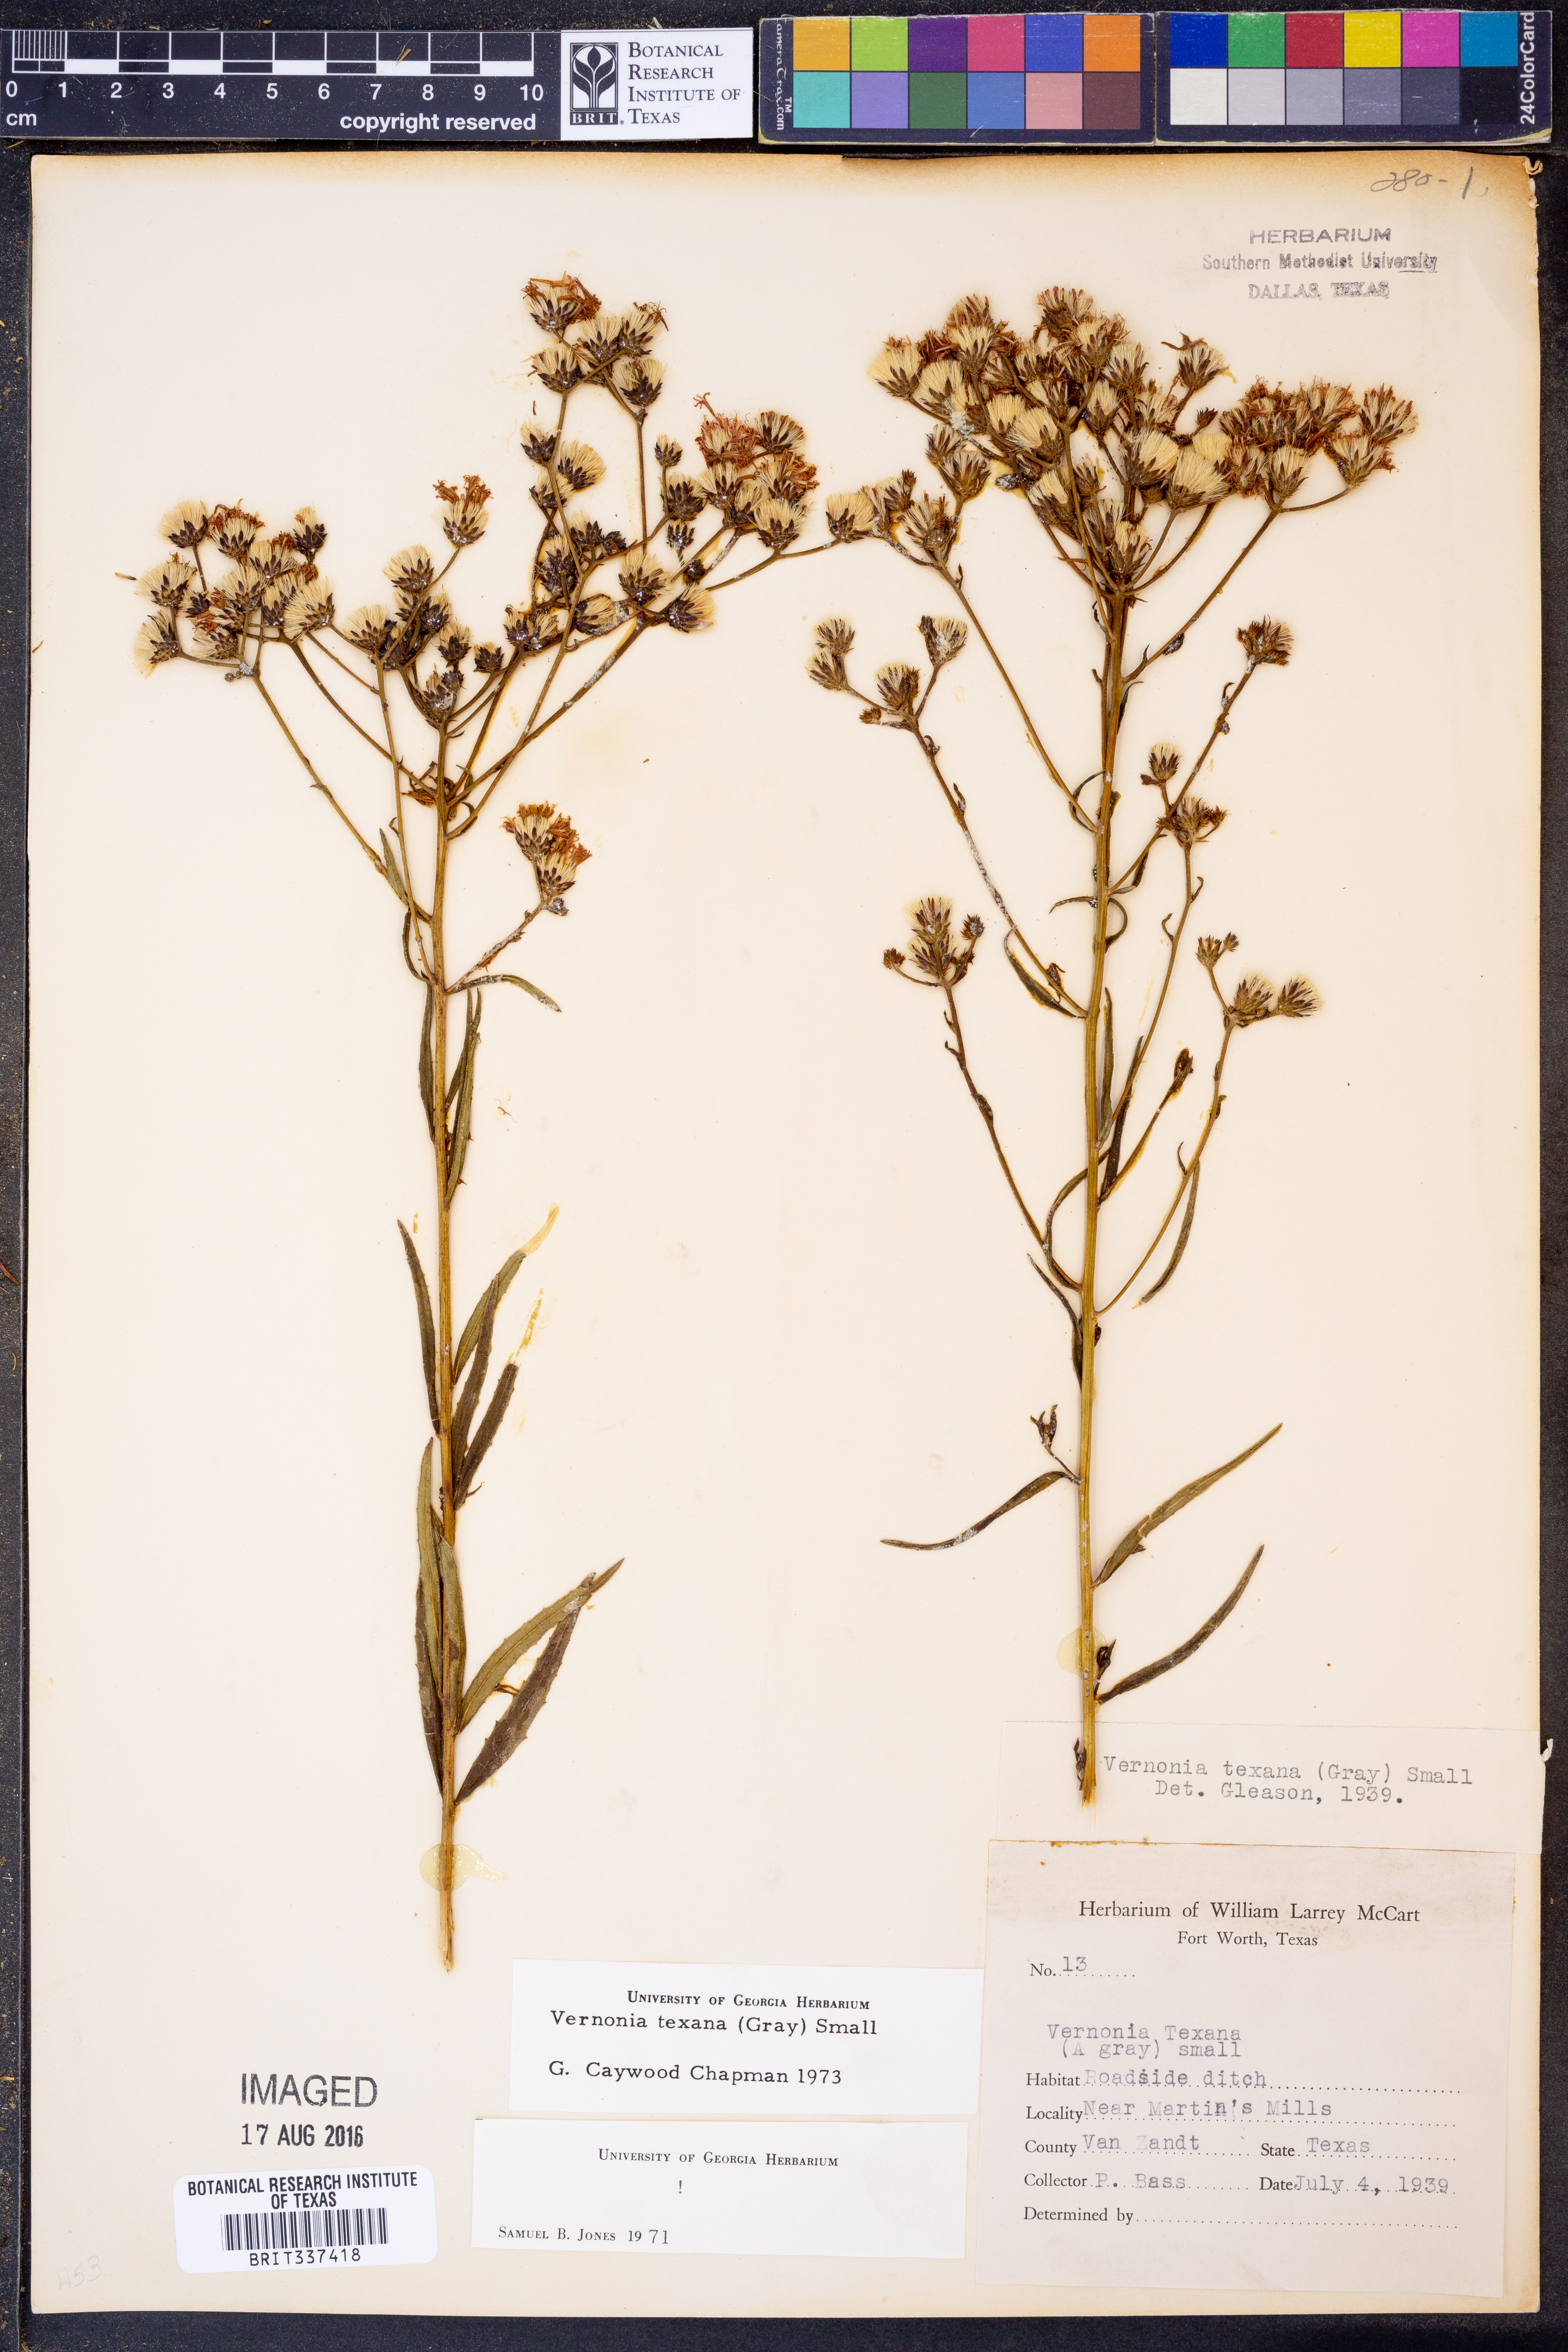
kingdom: Plantae
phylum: Tracheophyta
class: Magnoliopsida
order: Asterales
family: Asteraceae
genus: Vernonia
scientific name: Vernonia texana
